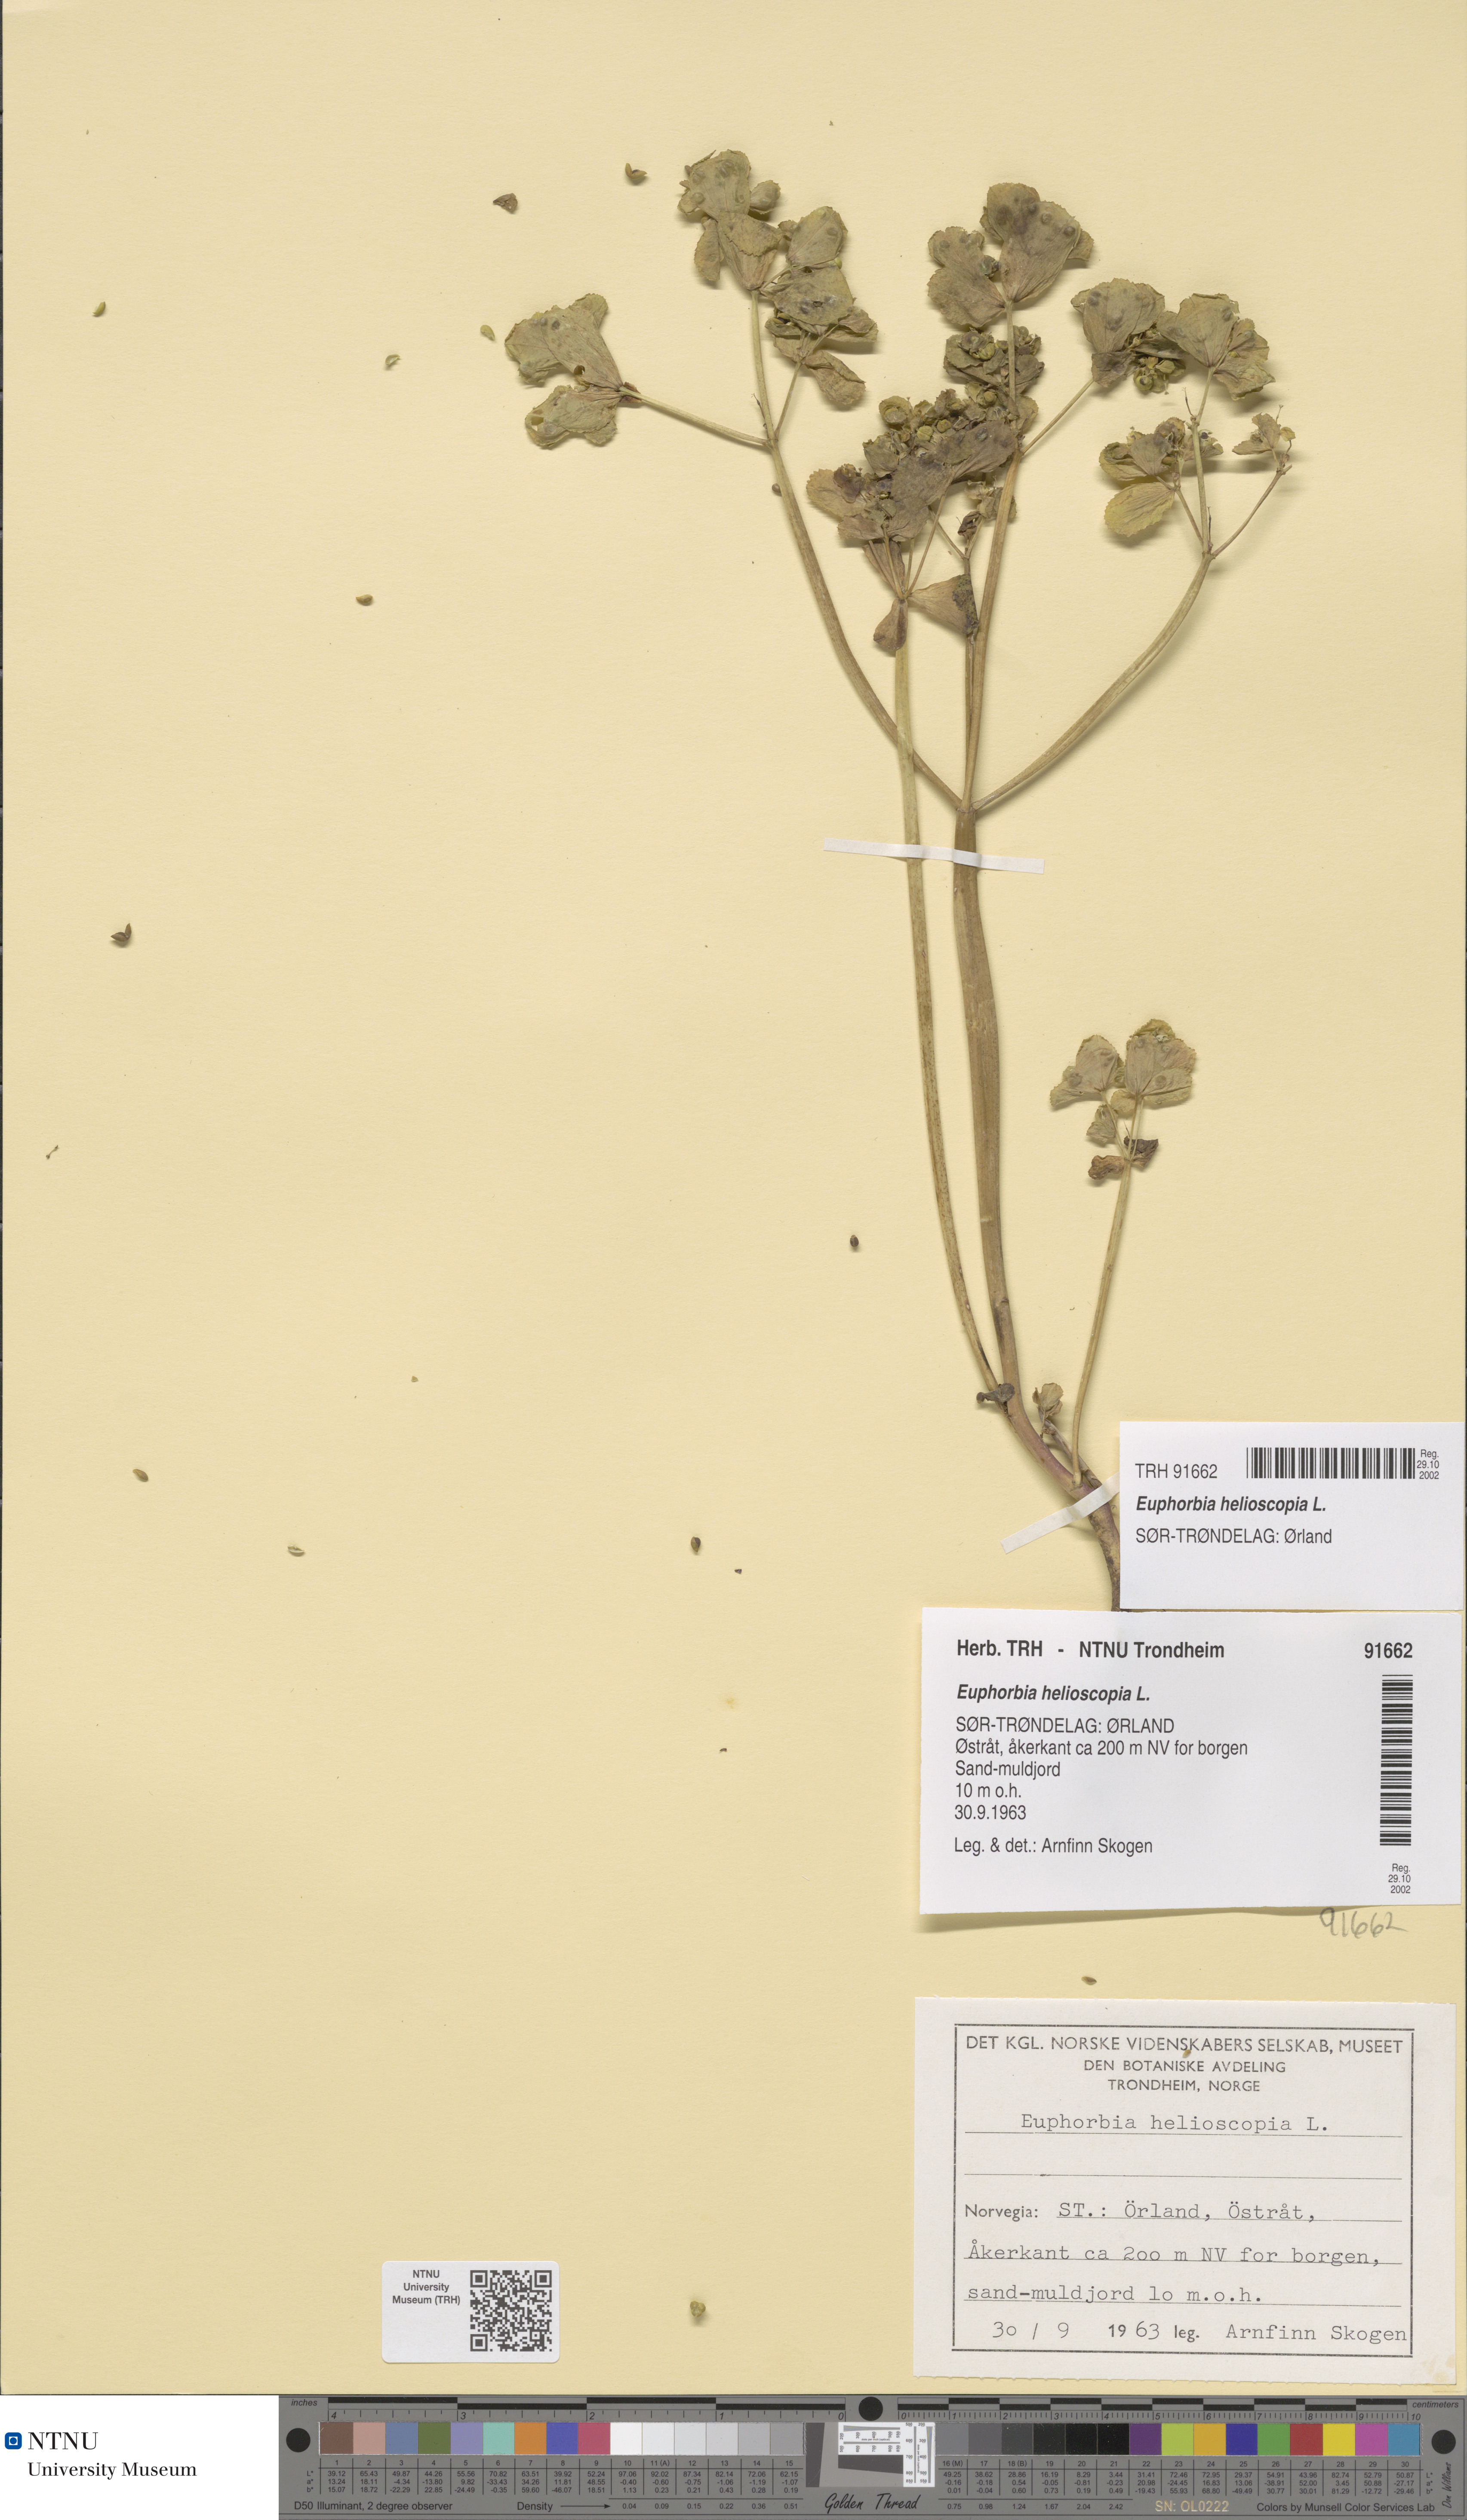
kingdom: Plantae
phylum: Tracheophyta
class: Magnoliopsida
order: Malpighiales
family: Euphorbiaceae
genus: Euphorbia
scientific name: Euphorbia helioscopia
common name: Sun spurge
